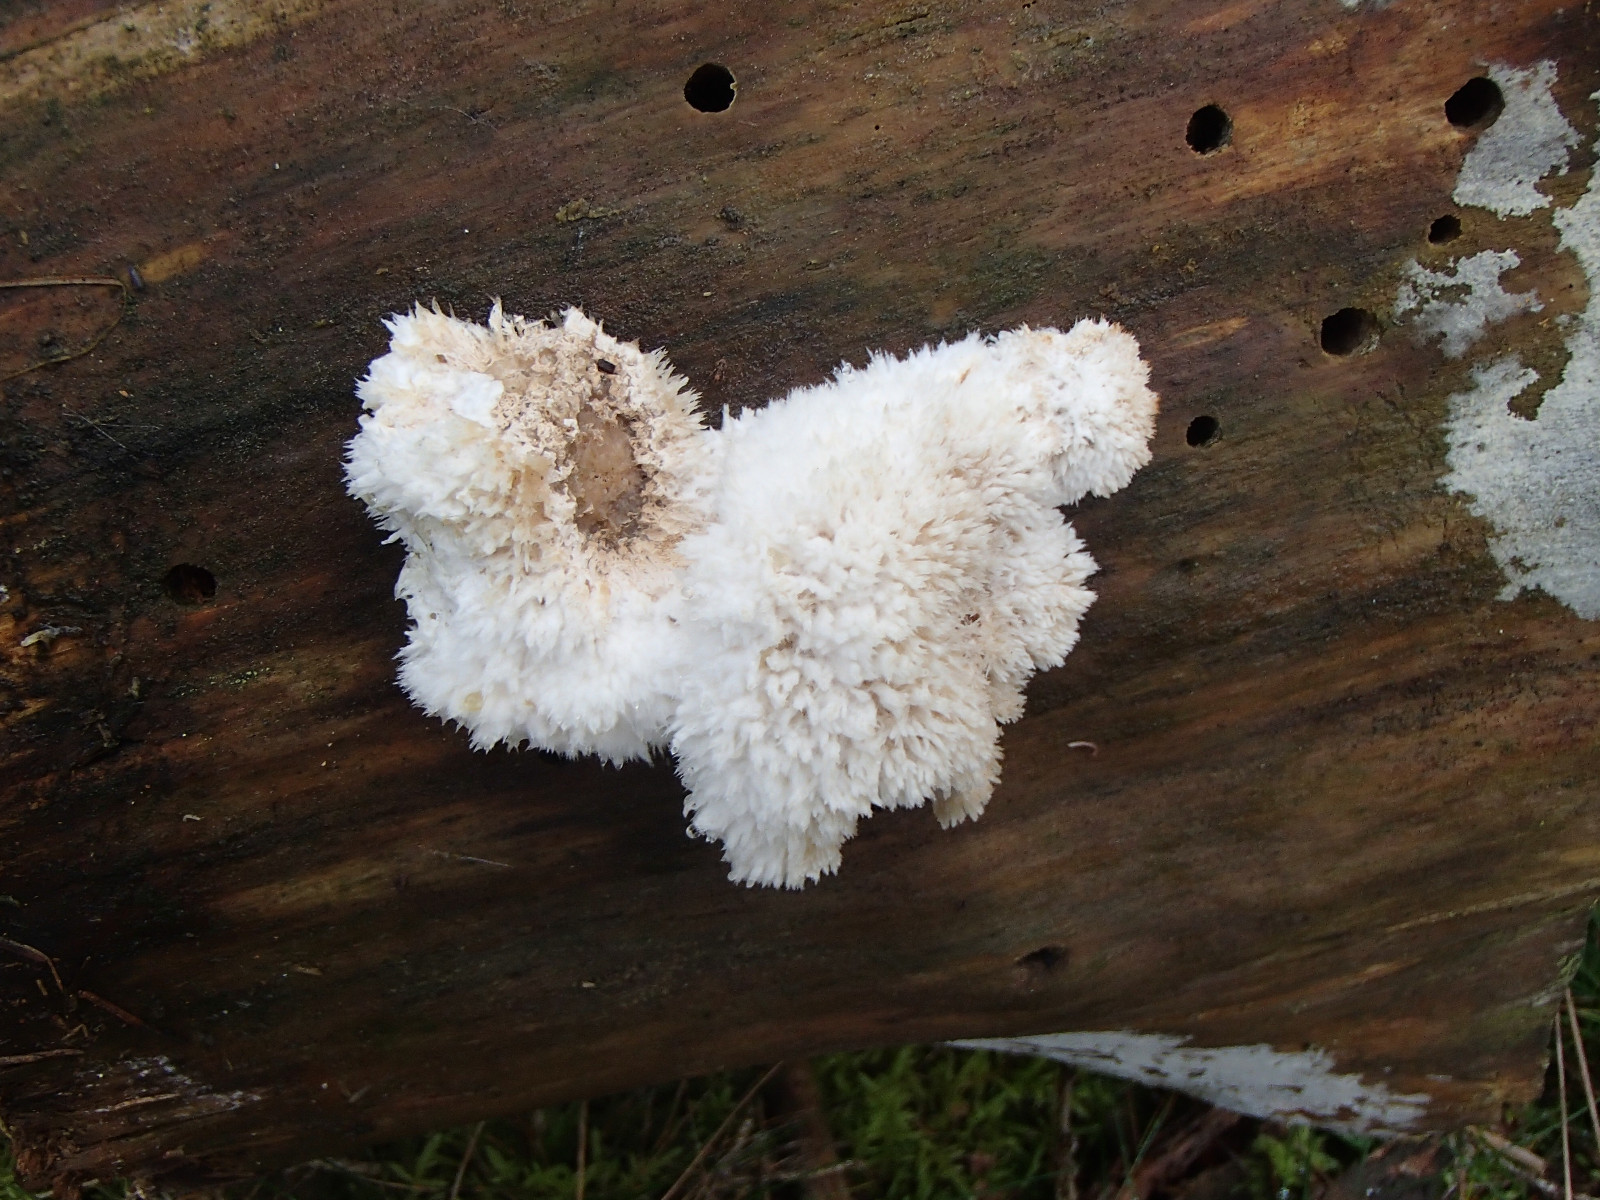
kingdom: Fungi
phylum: Basidiomycota
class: Agaricomycetes
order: Polyporales
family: Dacryobolaceae
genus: Postia
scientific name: Postia ptychogaster
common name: støvende kødporesvamp
